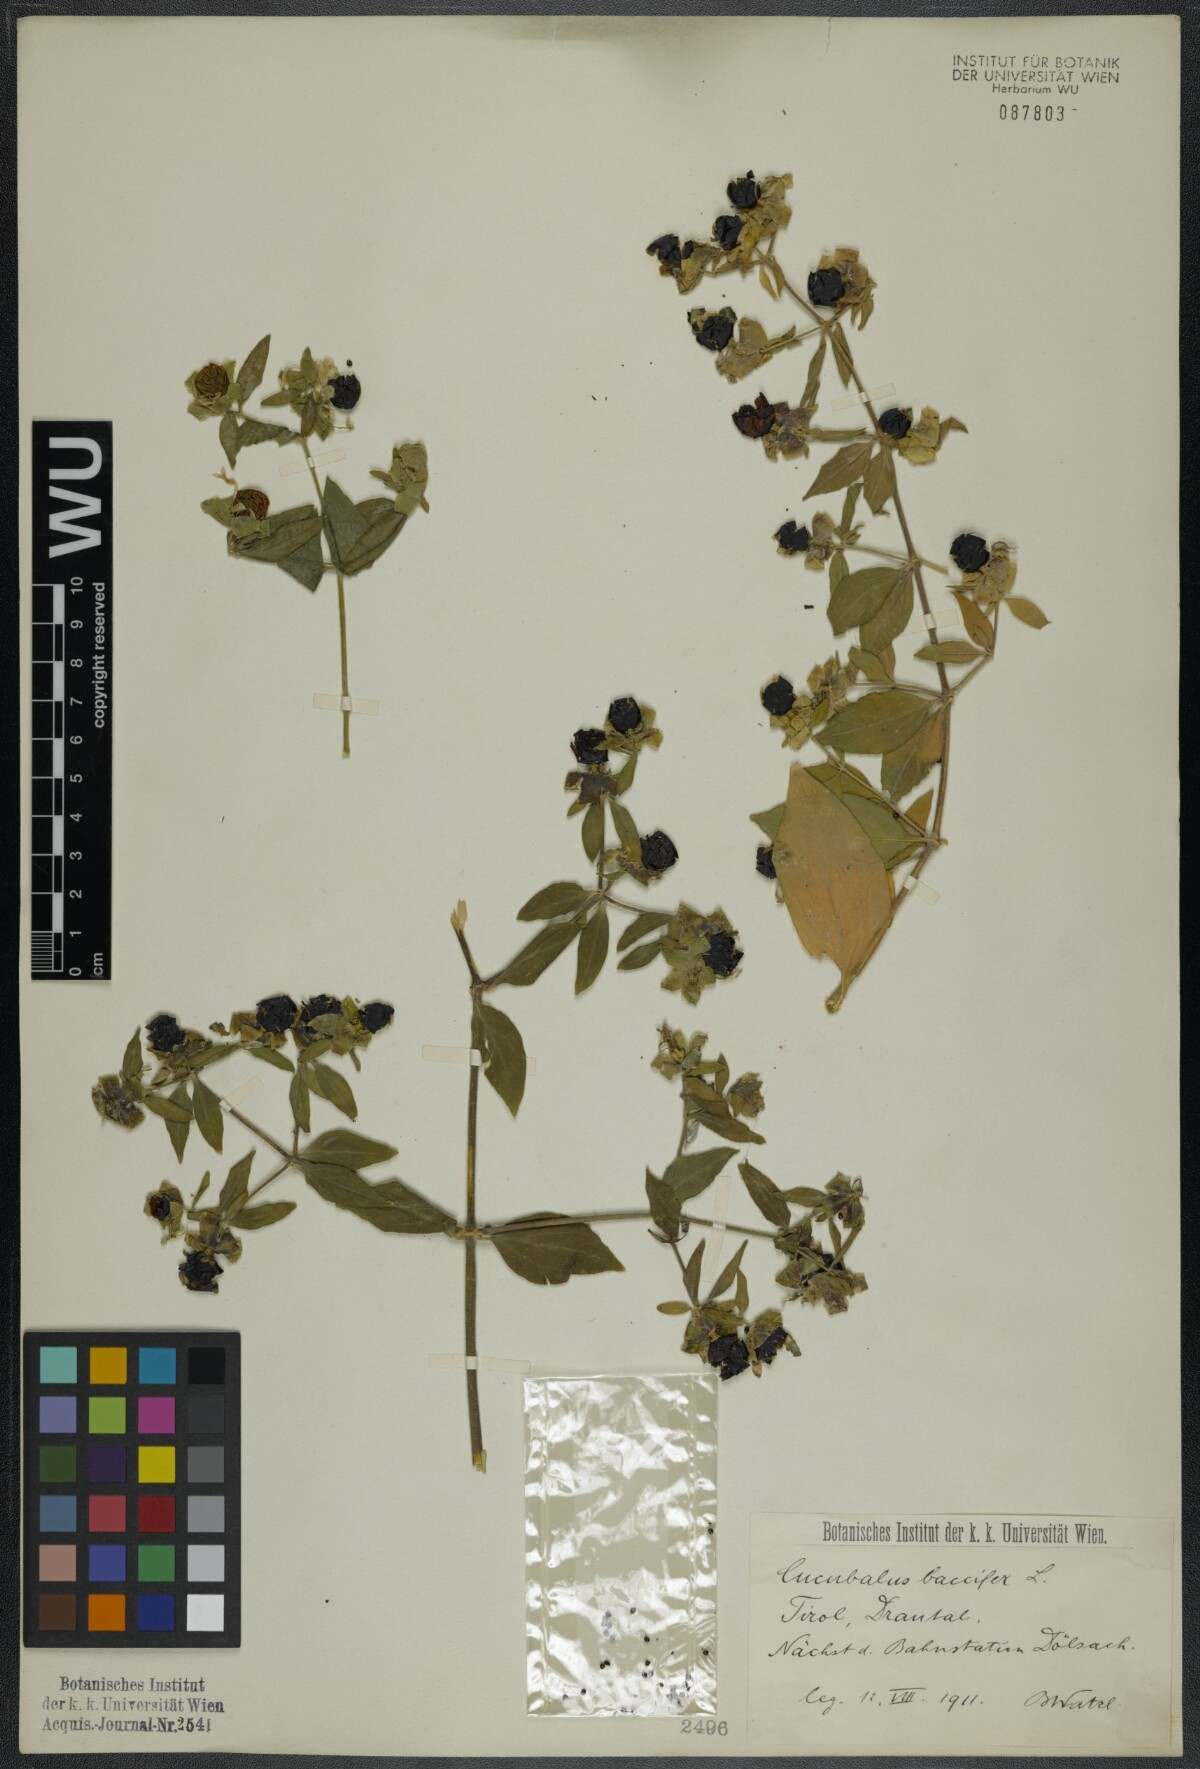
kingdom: Plantae
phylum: Tracheophyta
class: Magnoliopsida
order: Caryophyllales
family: Caryophyllaceae
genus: Silene
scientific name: Silene baccifera
